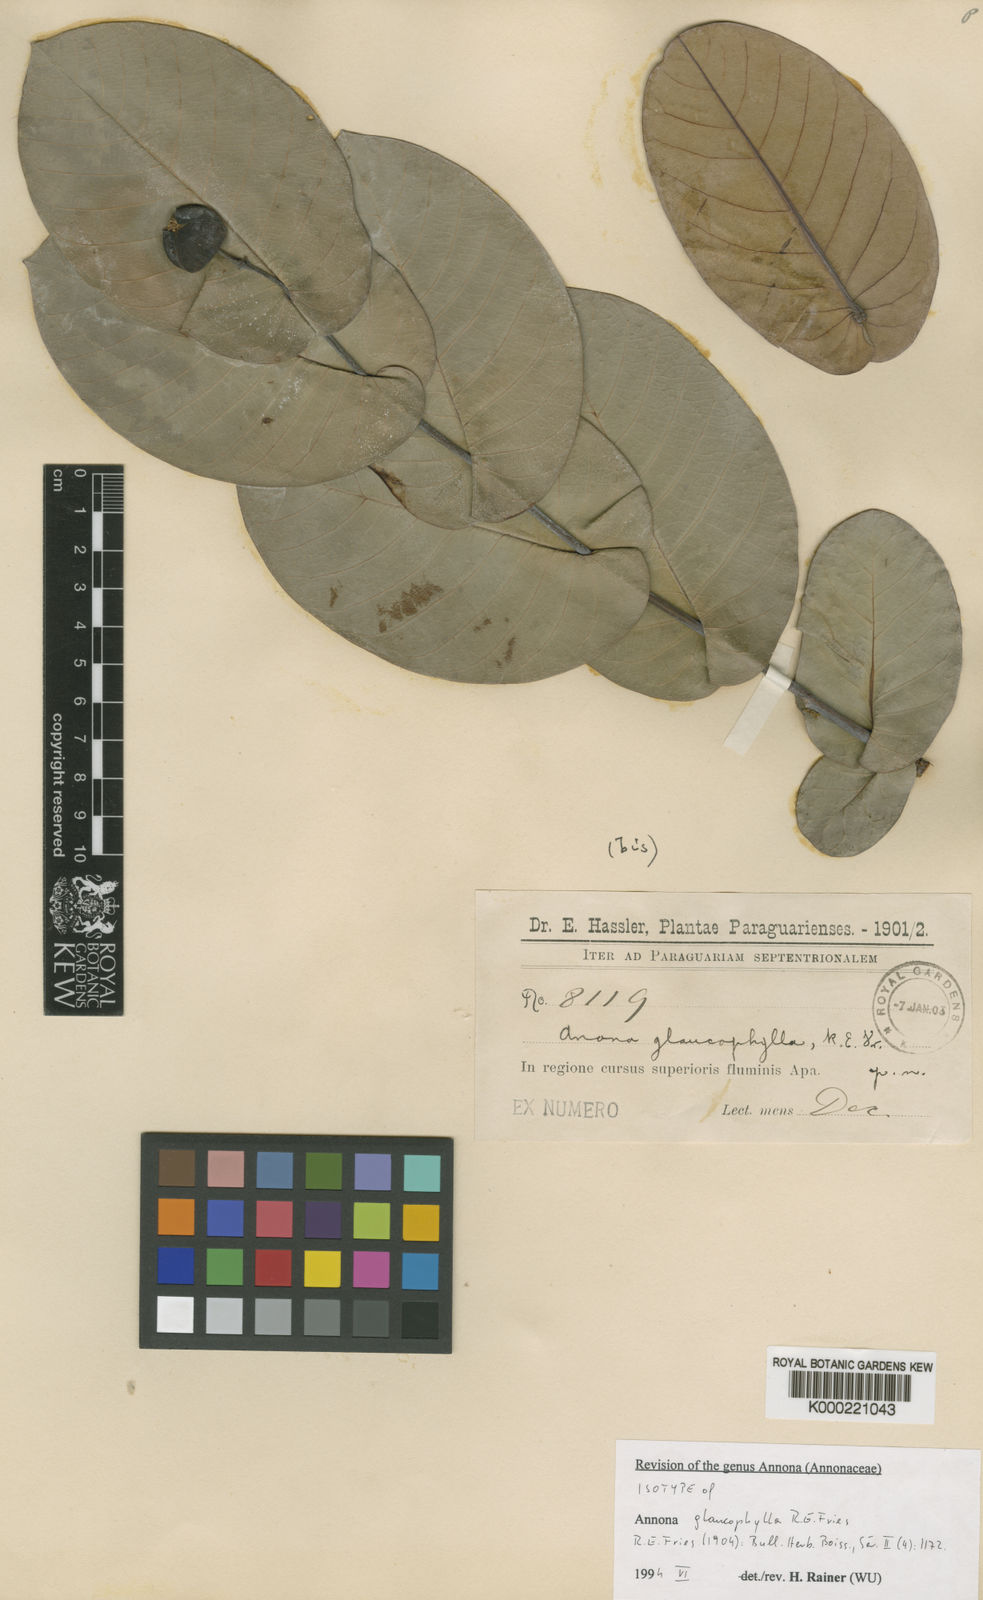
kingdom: Plantae
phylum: Tracheophyta
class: Magnoliopsida
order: Magnoliales
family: Annonaceae
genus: Annona
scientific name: Annona glaucophylla
